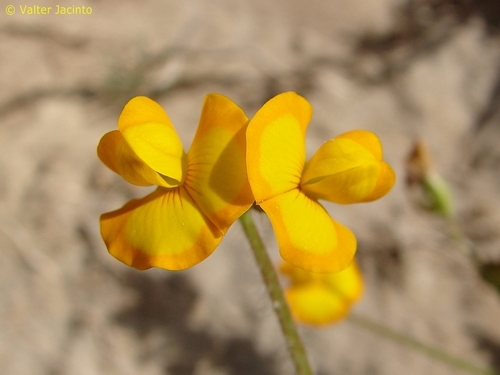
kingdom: Plantae
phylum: Tracheophyta
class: Magnoliopsida
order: Fabales
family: Fabaceae
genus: Scorpiurus
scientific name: Scorpiurus vermiculatus
